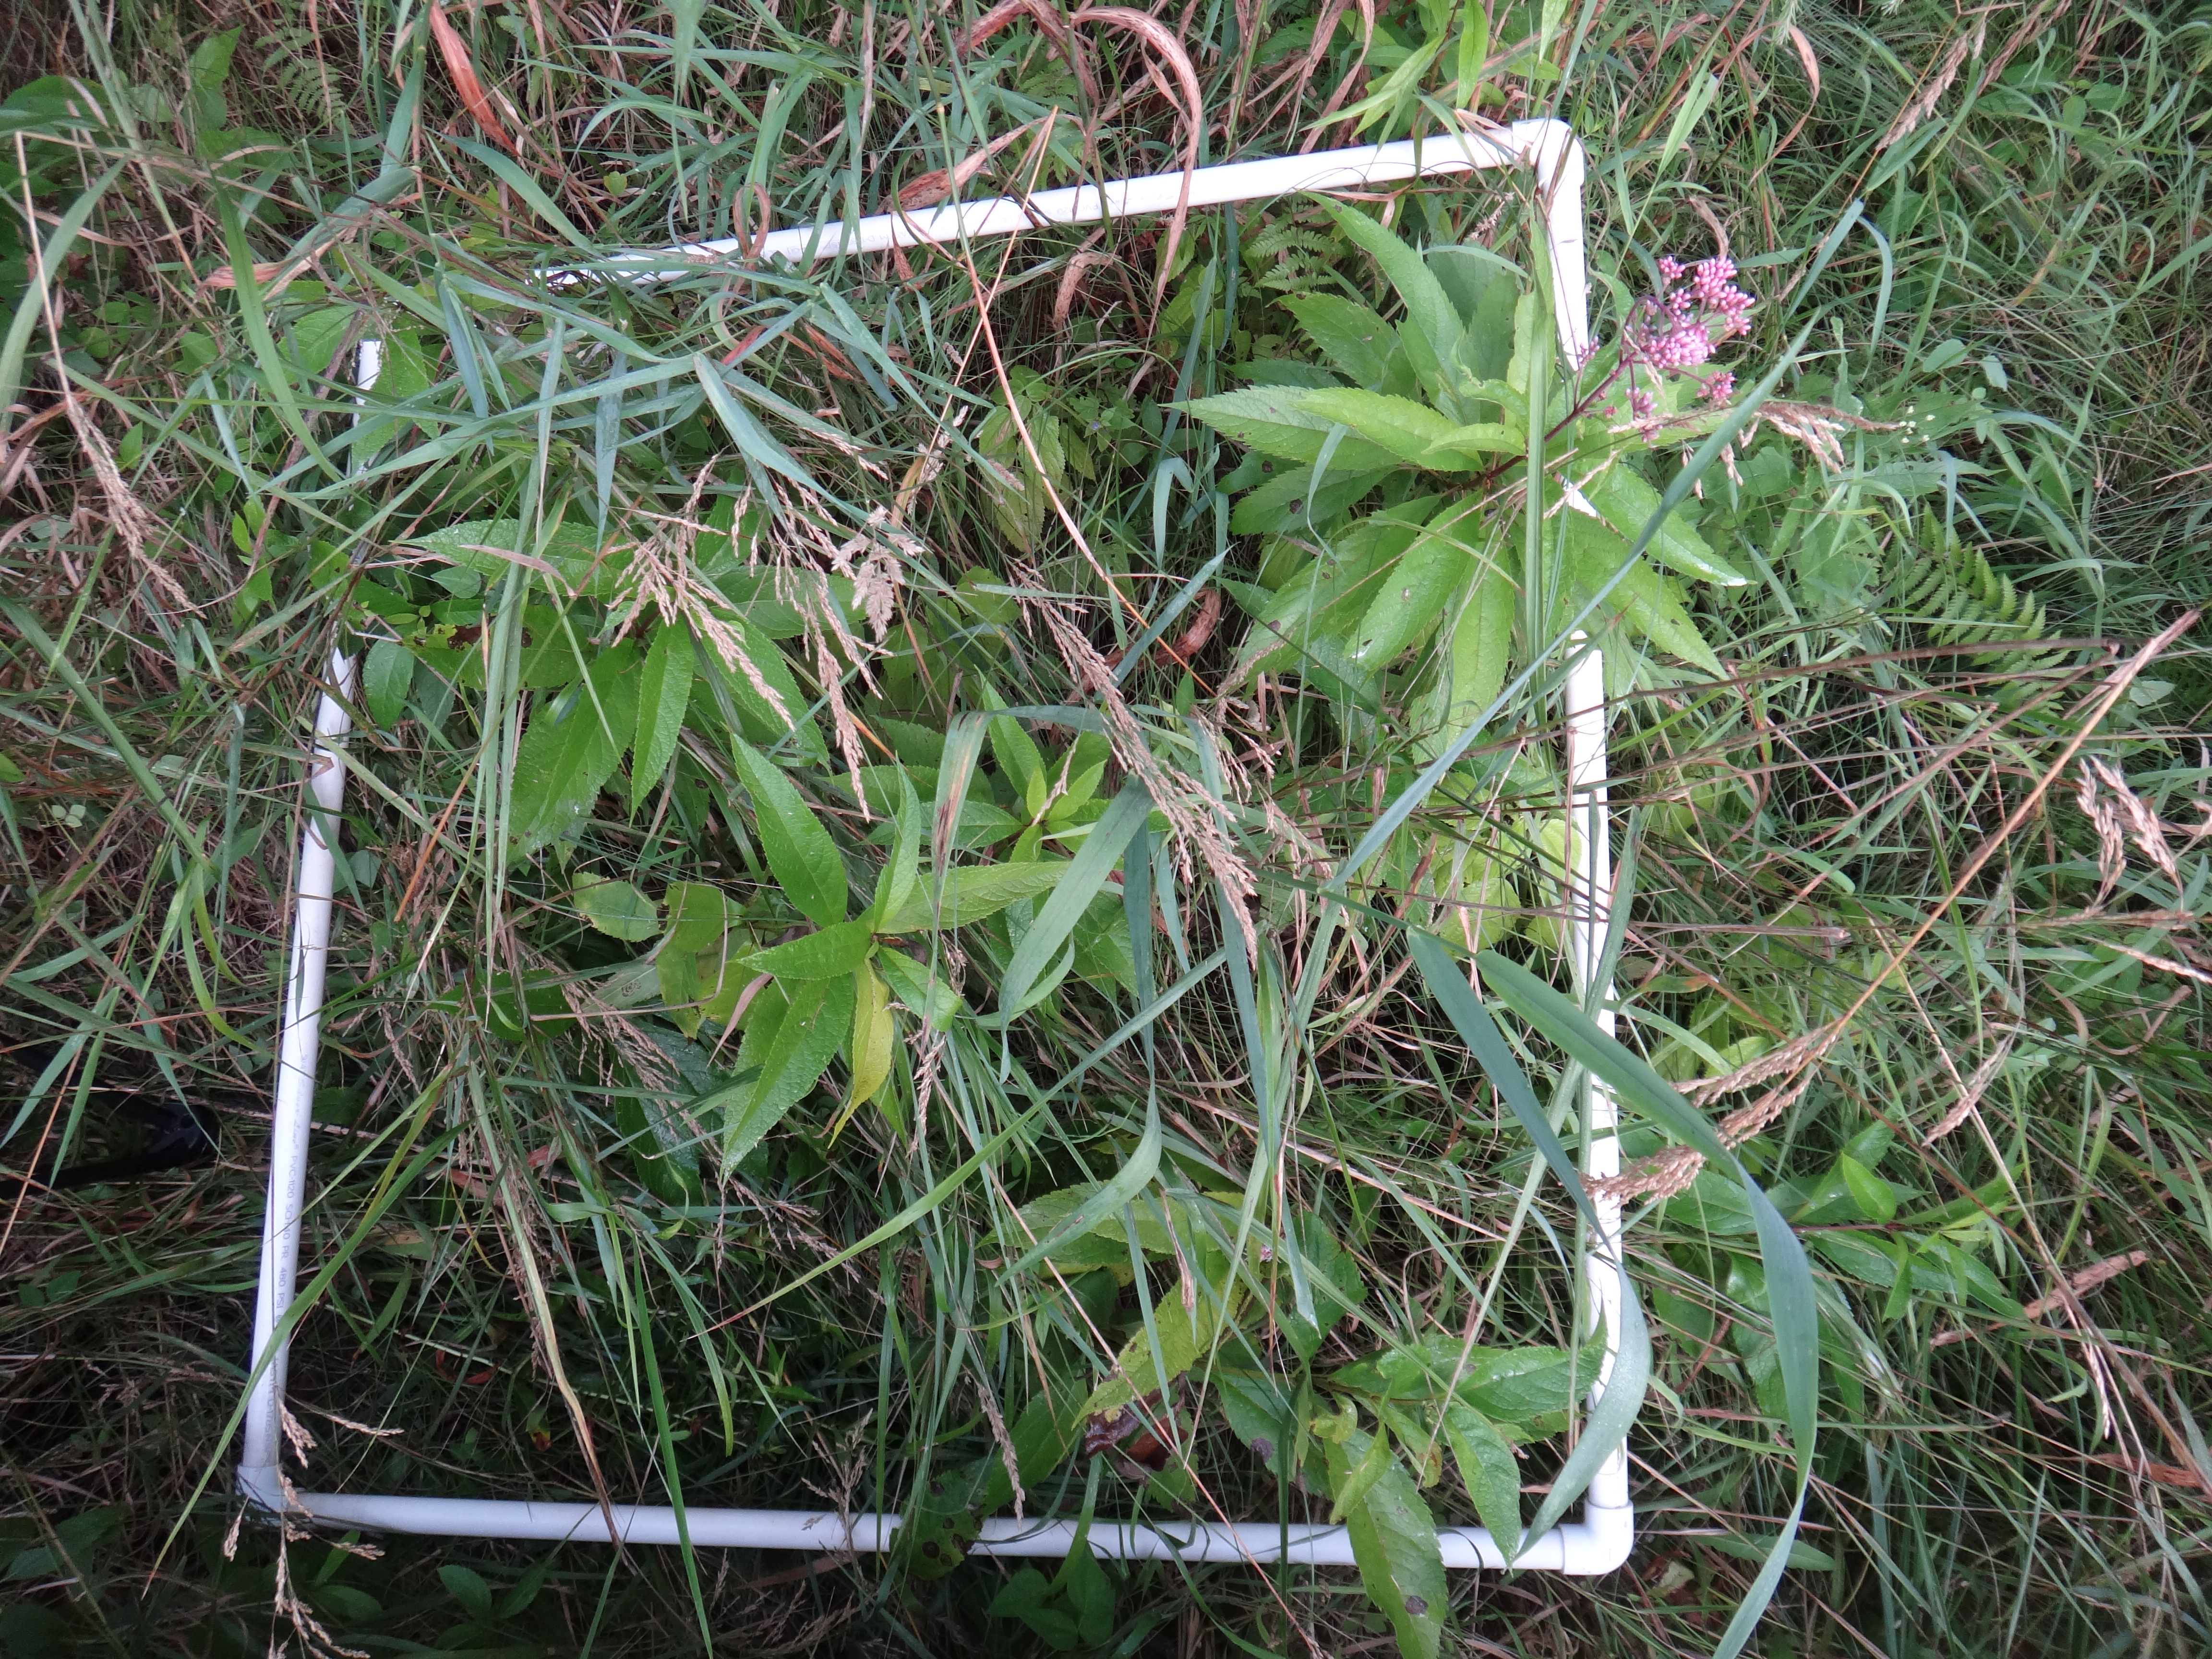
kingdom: Plantae
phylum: Tracheophyta
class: Magnoliopsida
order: Sapindales
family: Anacardiaceae
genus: Toxicodendron
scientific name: Toxicodendron vernix
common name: Poison sumac
